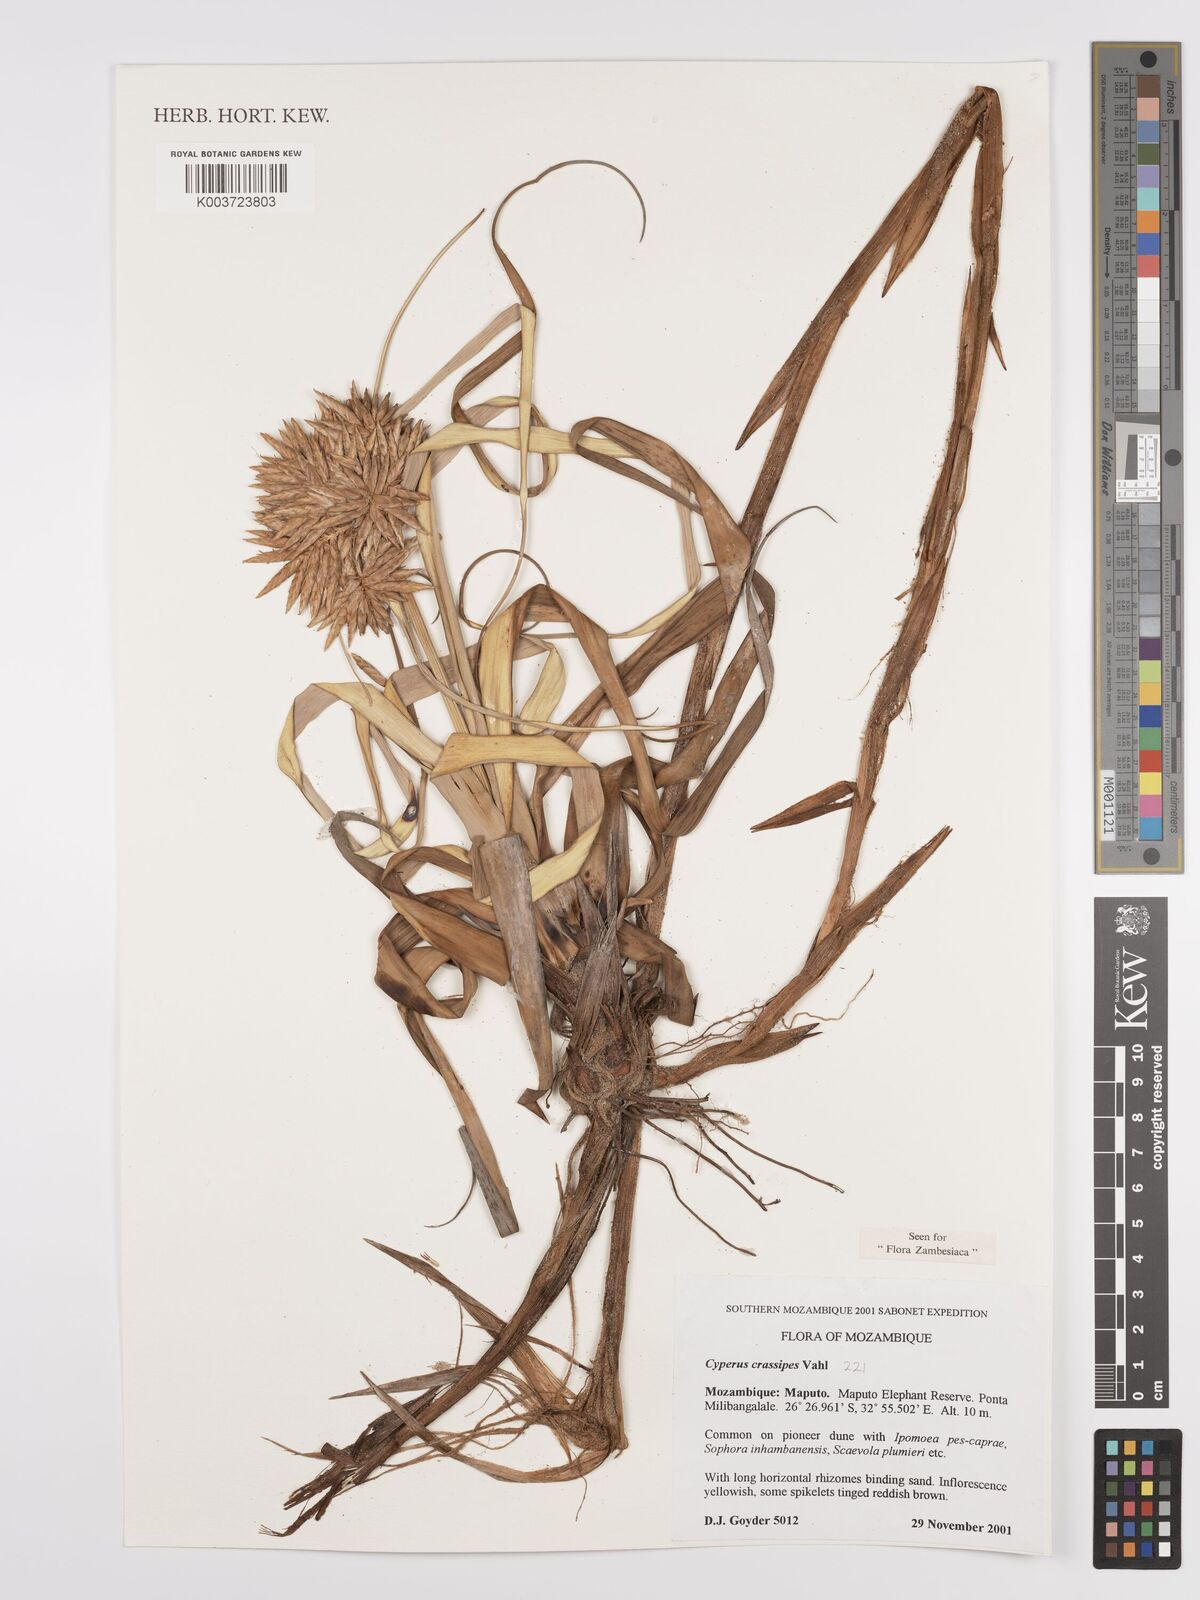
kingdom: Plantae
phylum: Tracheophyta
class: Liliopsida
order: Poales
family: Cyperaceae
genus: Cyperus
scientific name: Cyperus crassipes
